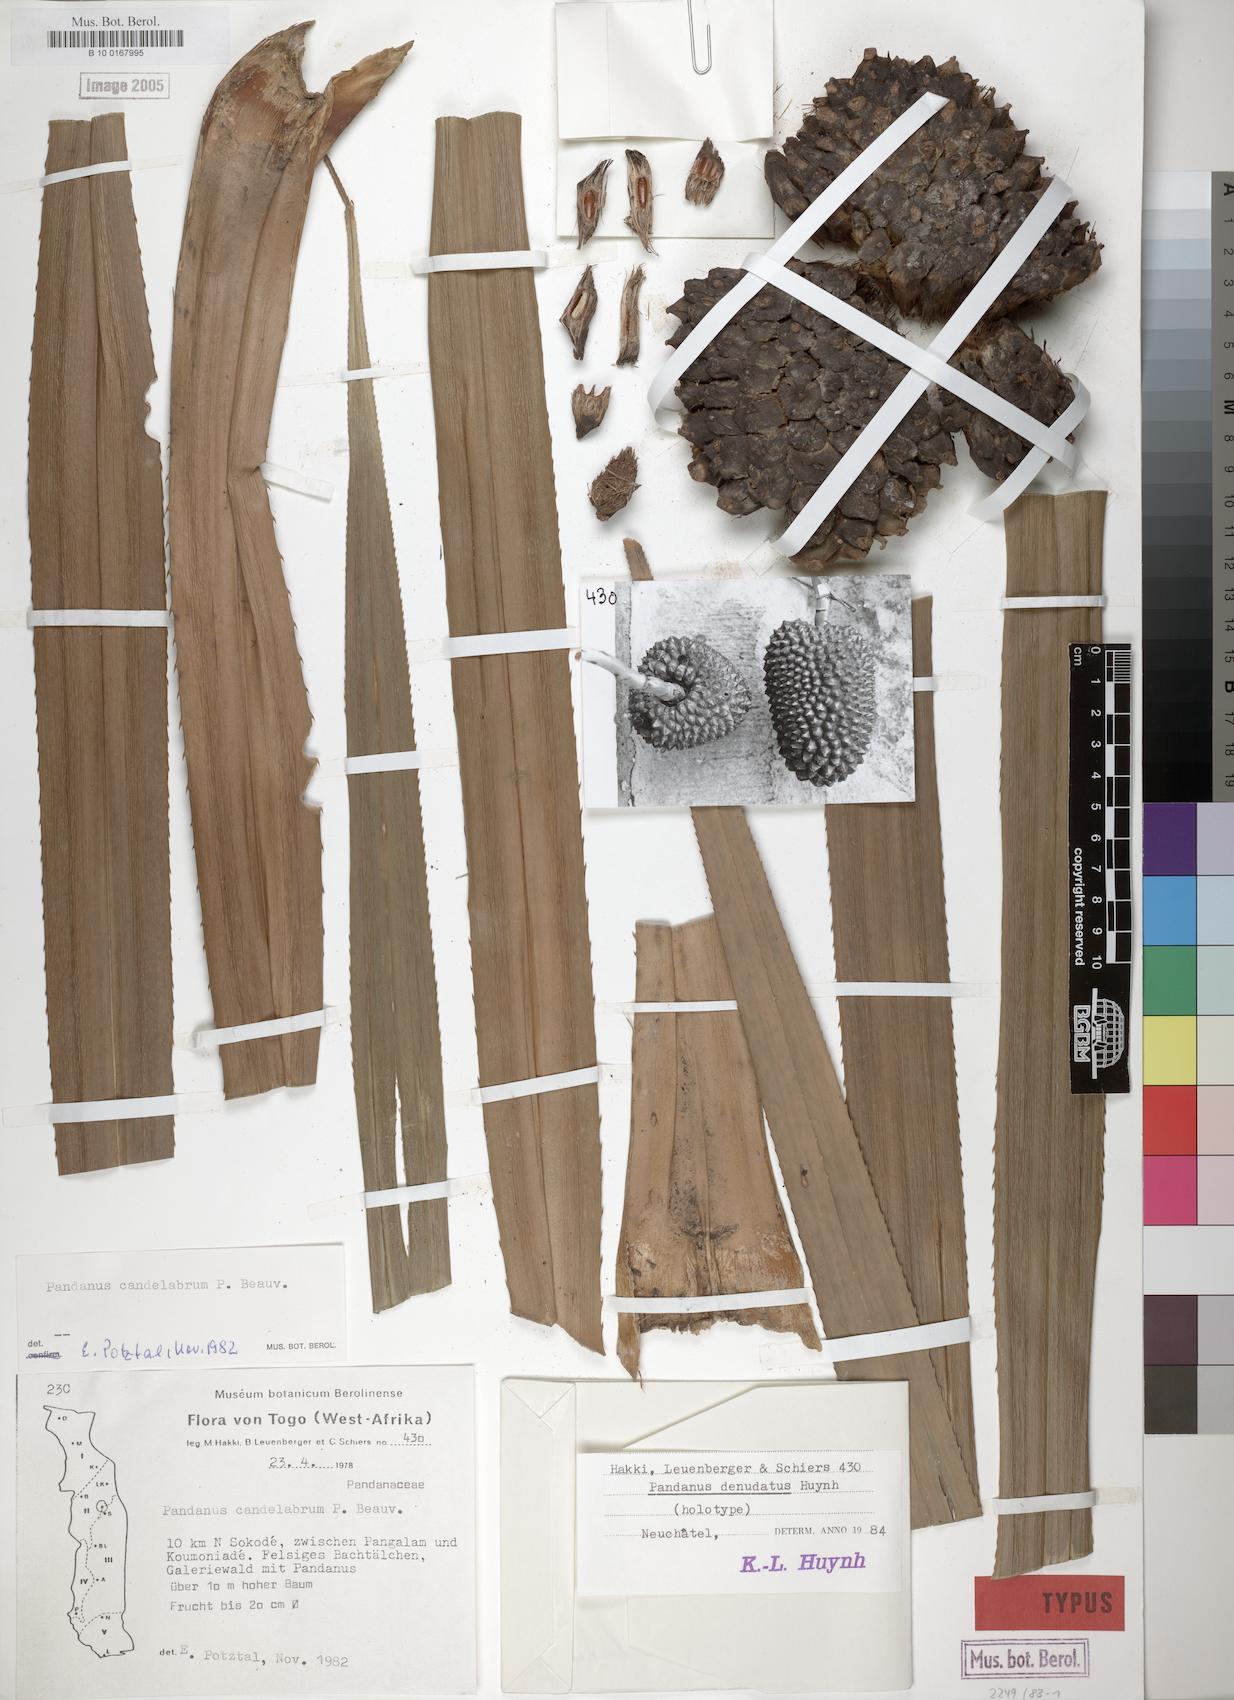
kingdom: Plantae
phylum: Tracheophyta
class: Liliopsida
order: Pandanales
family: Pandanaceae
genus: Pandanus
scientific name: Pandanus candelabrum
